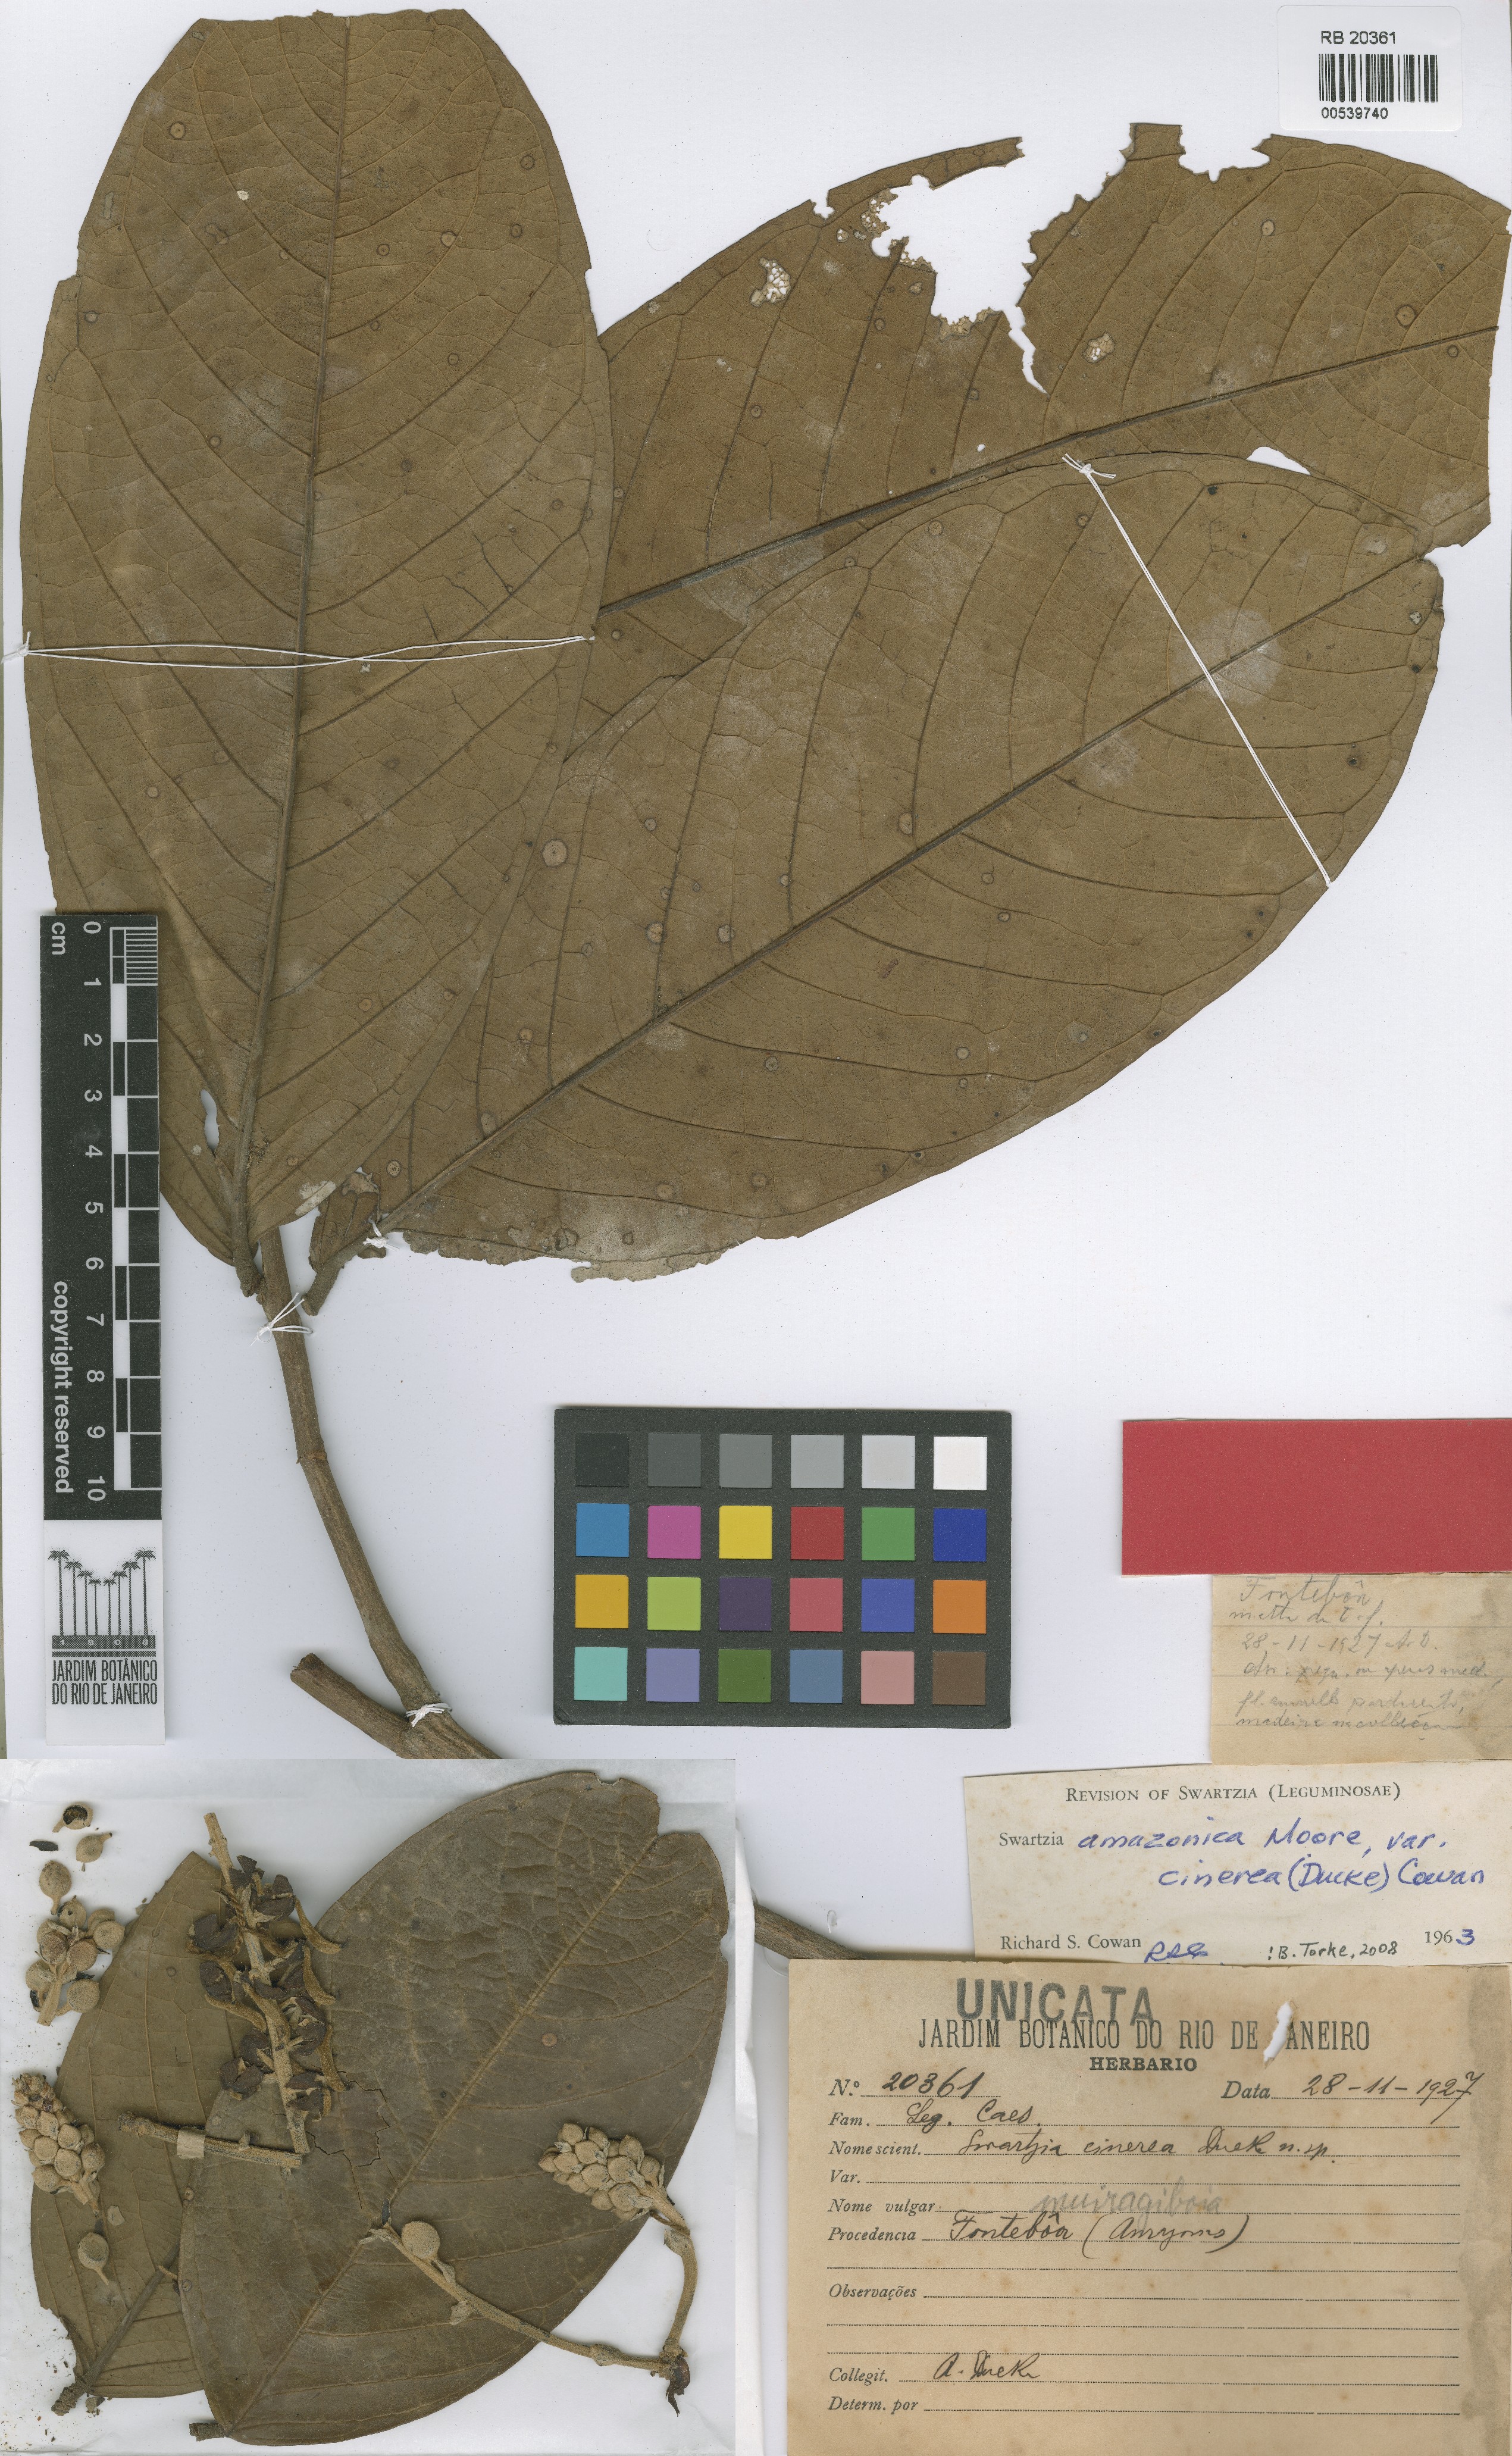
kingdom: Plantae
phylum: Tracheophyta
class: Magnoliopsida
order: Fabales
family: Fabaceae
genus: Swartzia
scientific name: Swartzia amazonica
